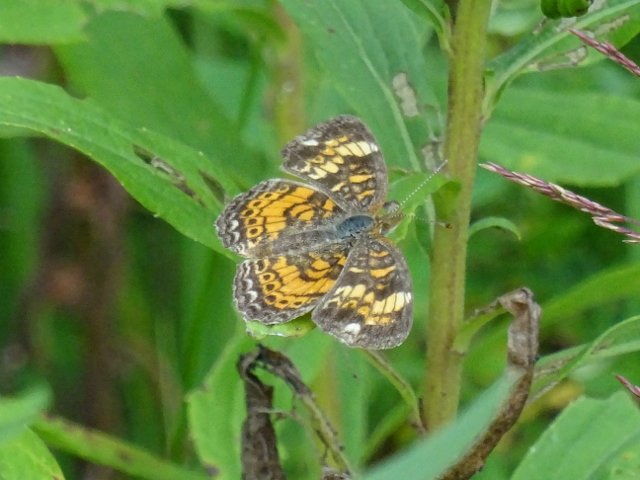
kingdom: Animalia
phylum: Arthropoda
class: Insecta
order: Lepidoptera
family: Nymphalidae
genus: Phyciodes
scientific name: Phyciodes tharos
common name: Pearl Crescent
